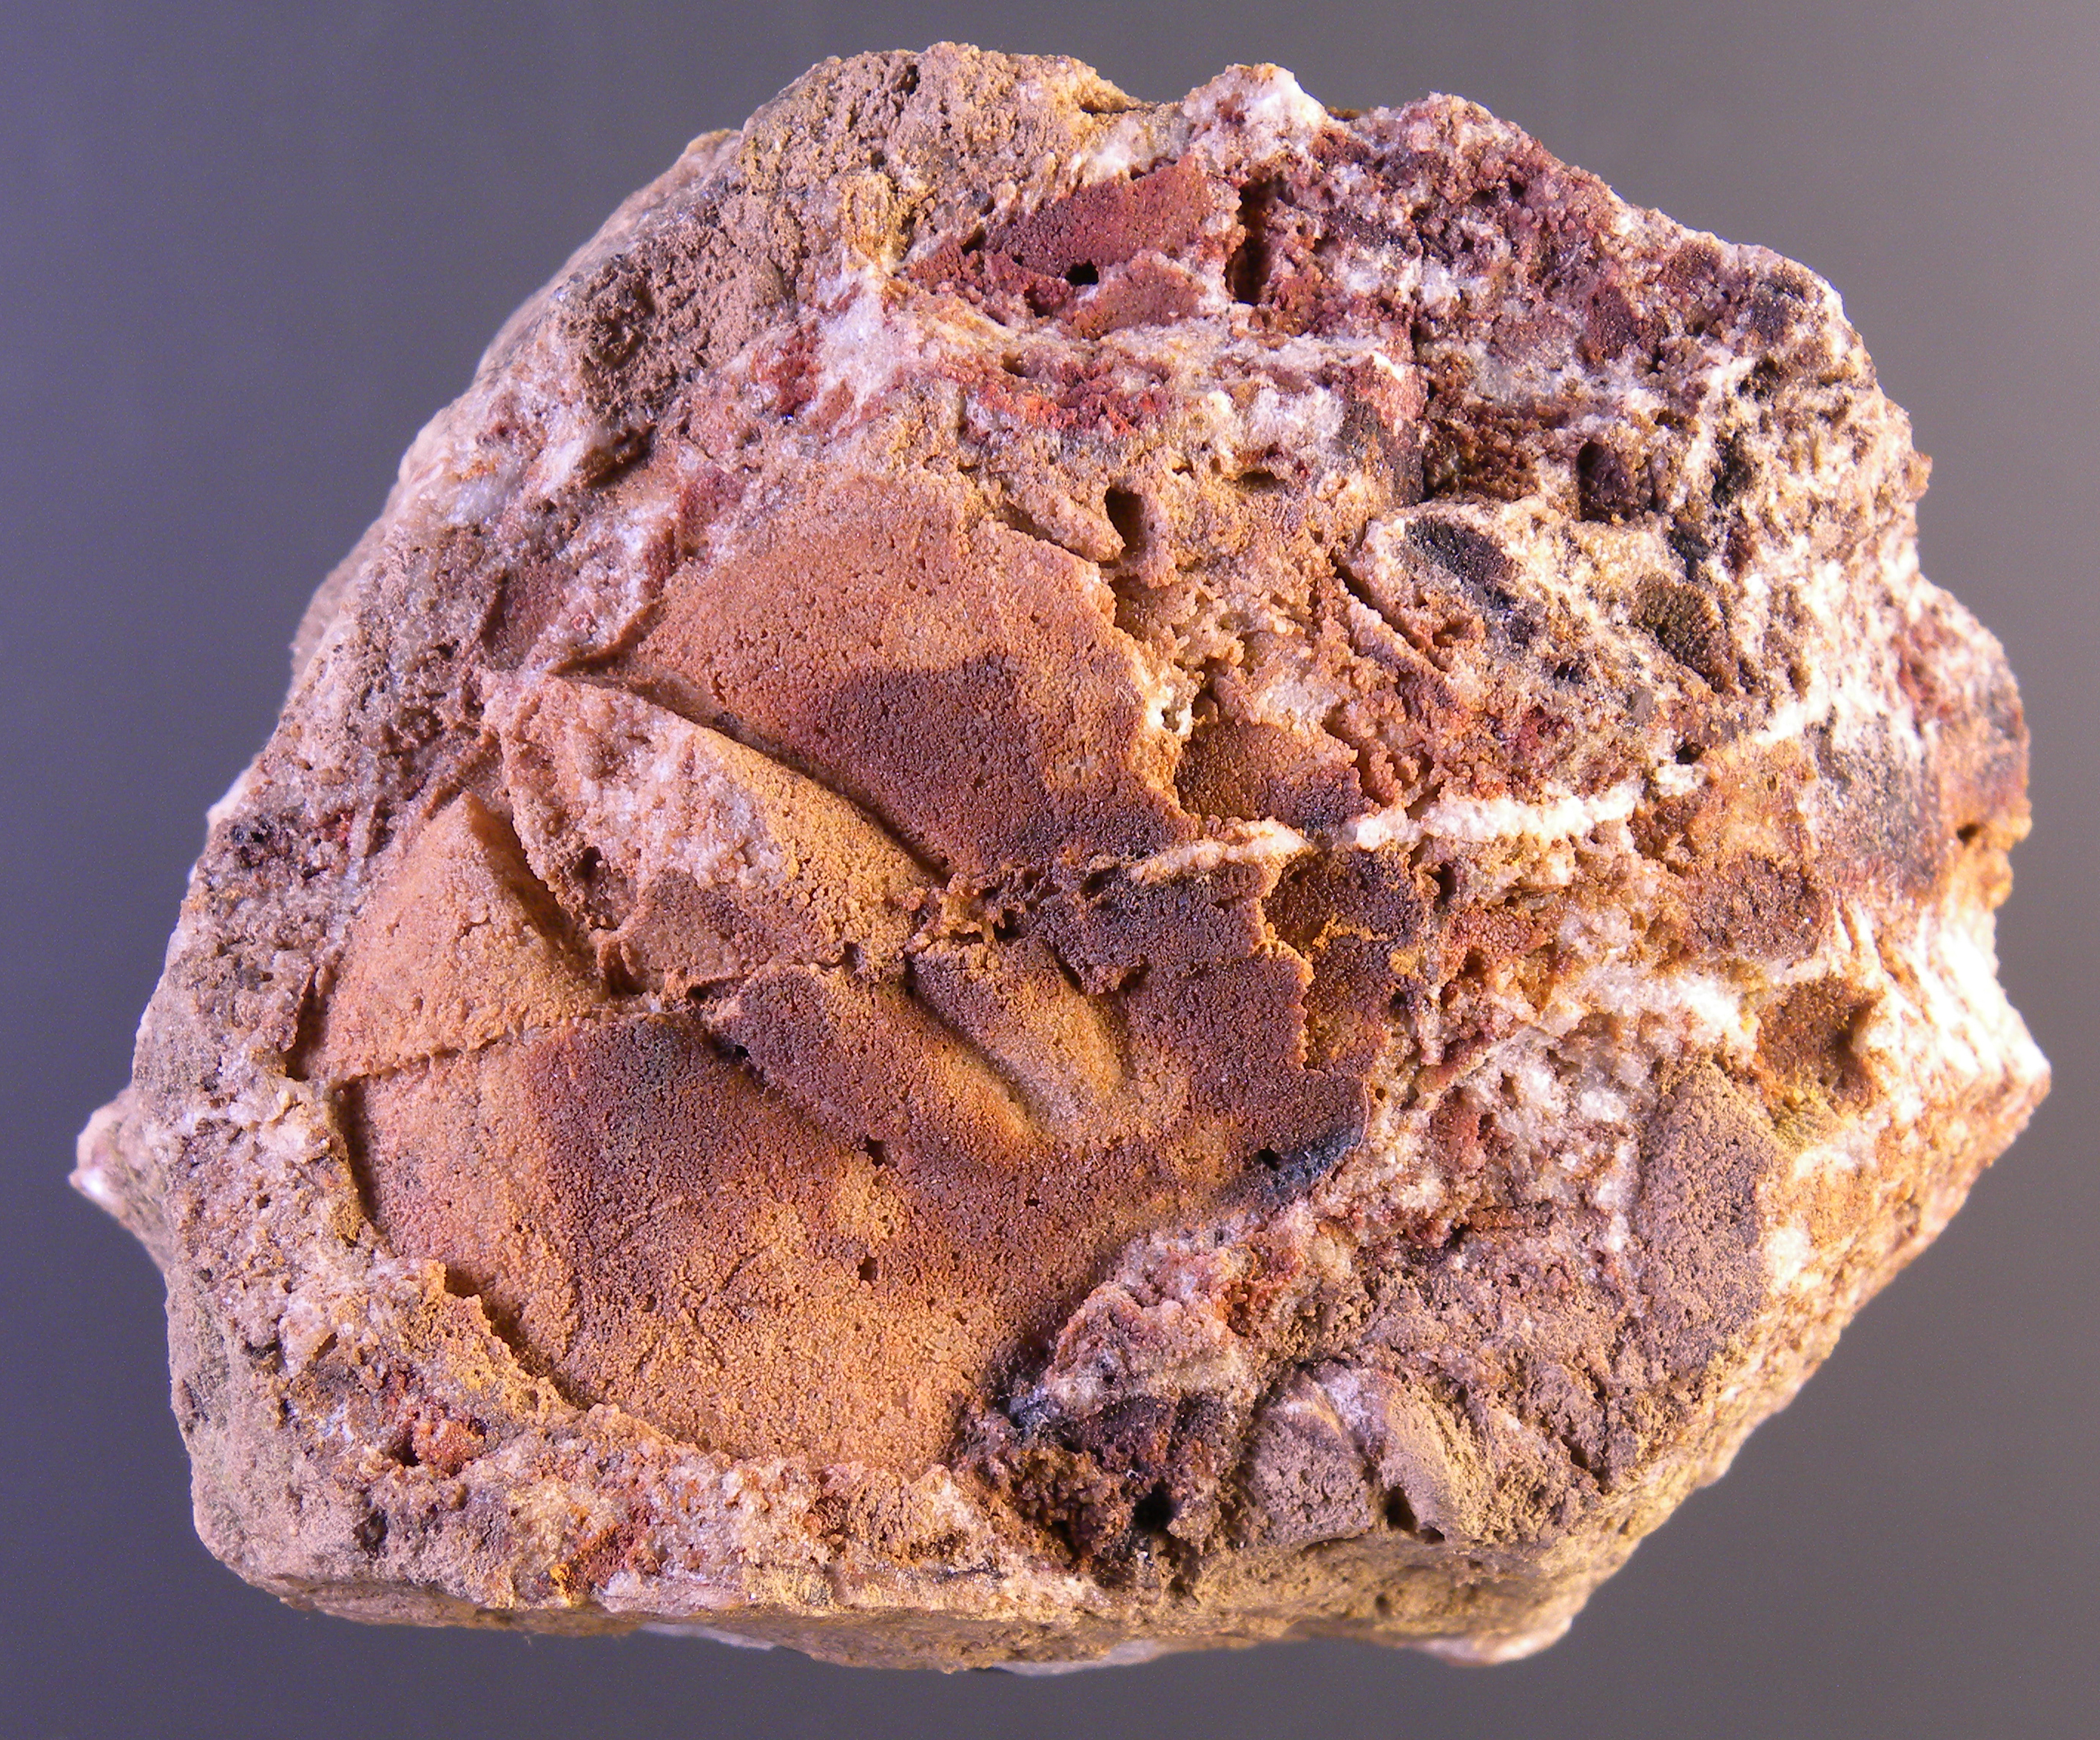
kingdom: Animalia
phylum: Cnidaria
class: Anthozoa
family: Micheliniidae
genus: Pleurodictyum
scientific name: Pleurodictyum
